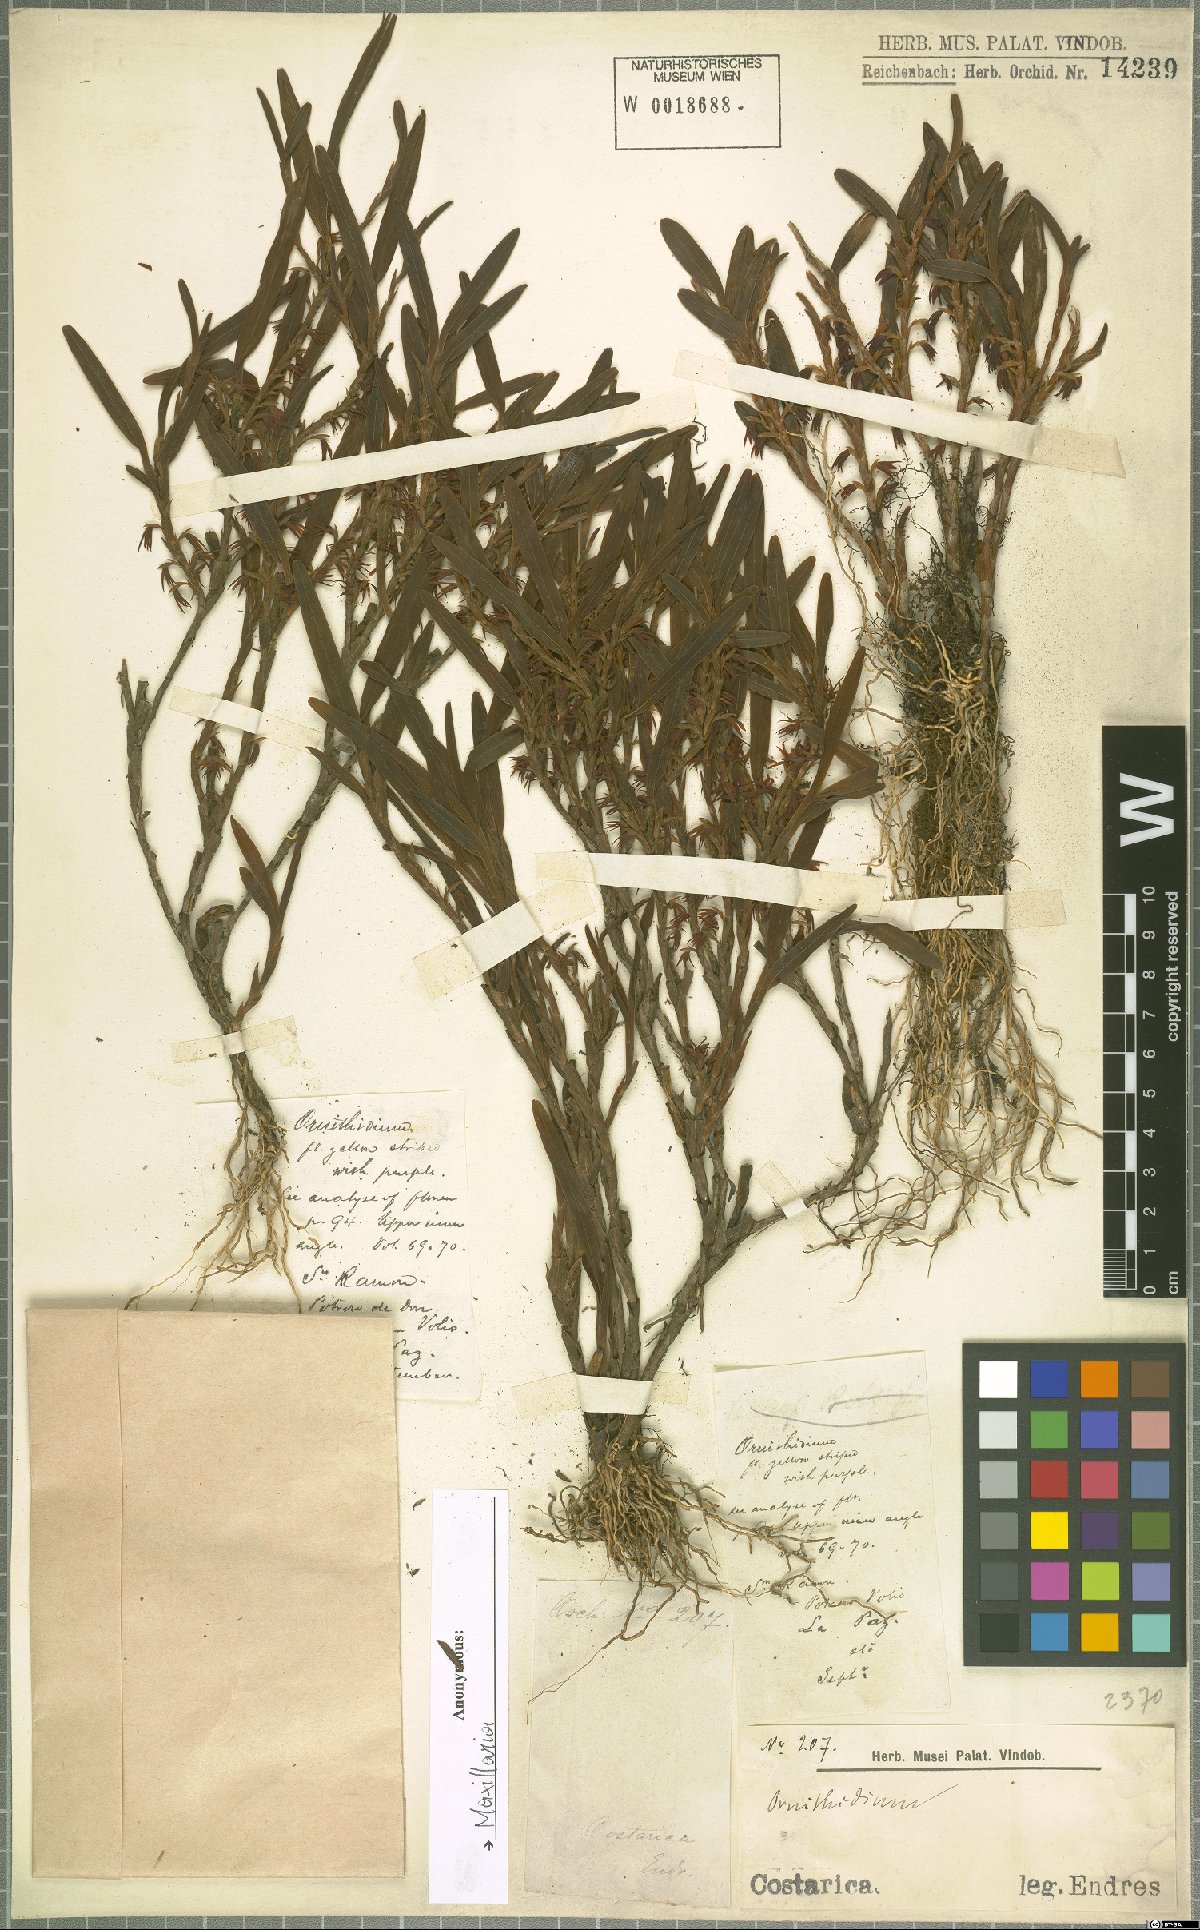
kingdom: Plantae
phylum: Tracheophyta
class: Liliopsida
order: Asparagales
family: Orchidaceae
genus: Maxillaria
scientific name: Maxillaria
